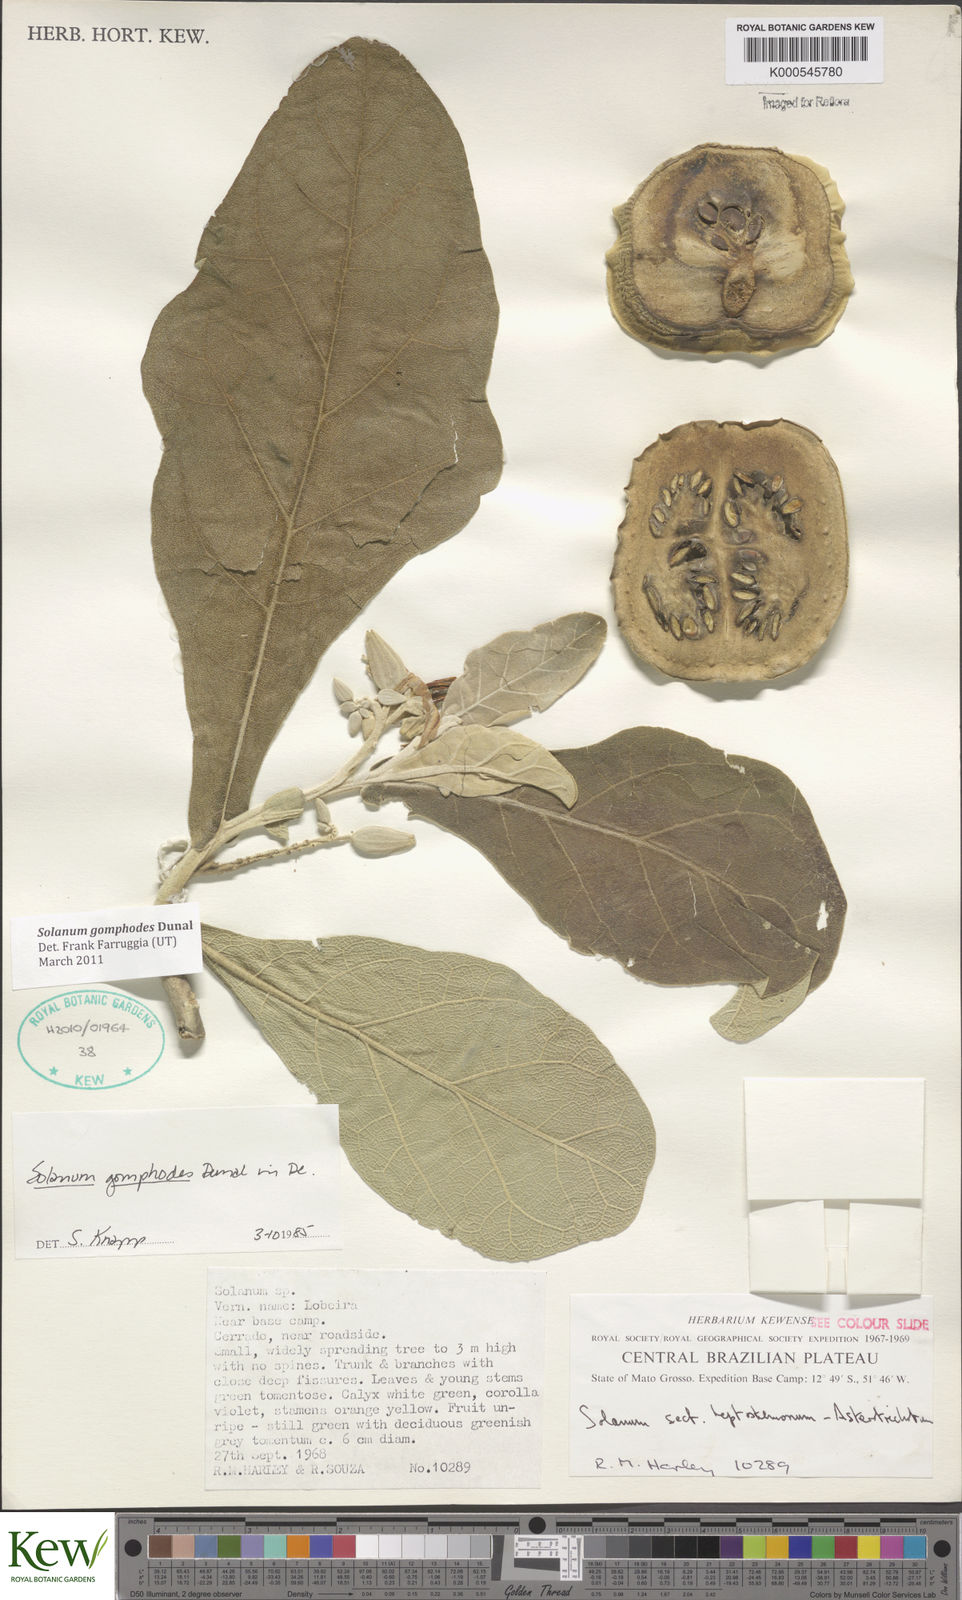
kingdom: Plantae
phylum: Tracheophyta
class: Magnoliopsida
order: Solanales
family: Solanaceae
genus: Solanum
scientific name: Solanum gomphodes
